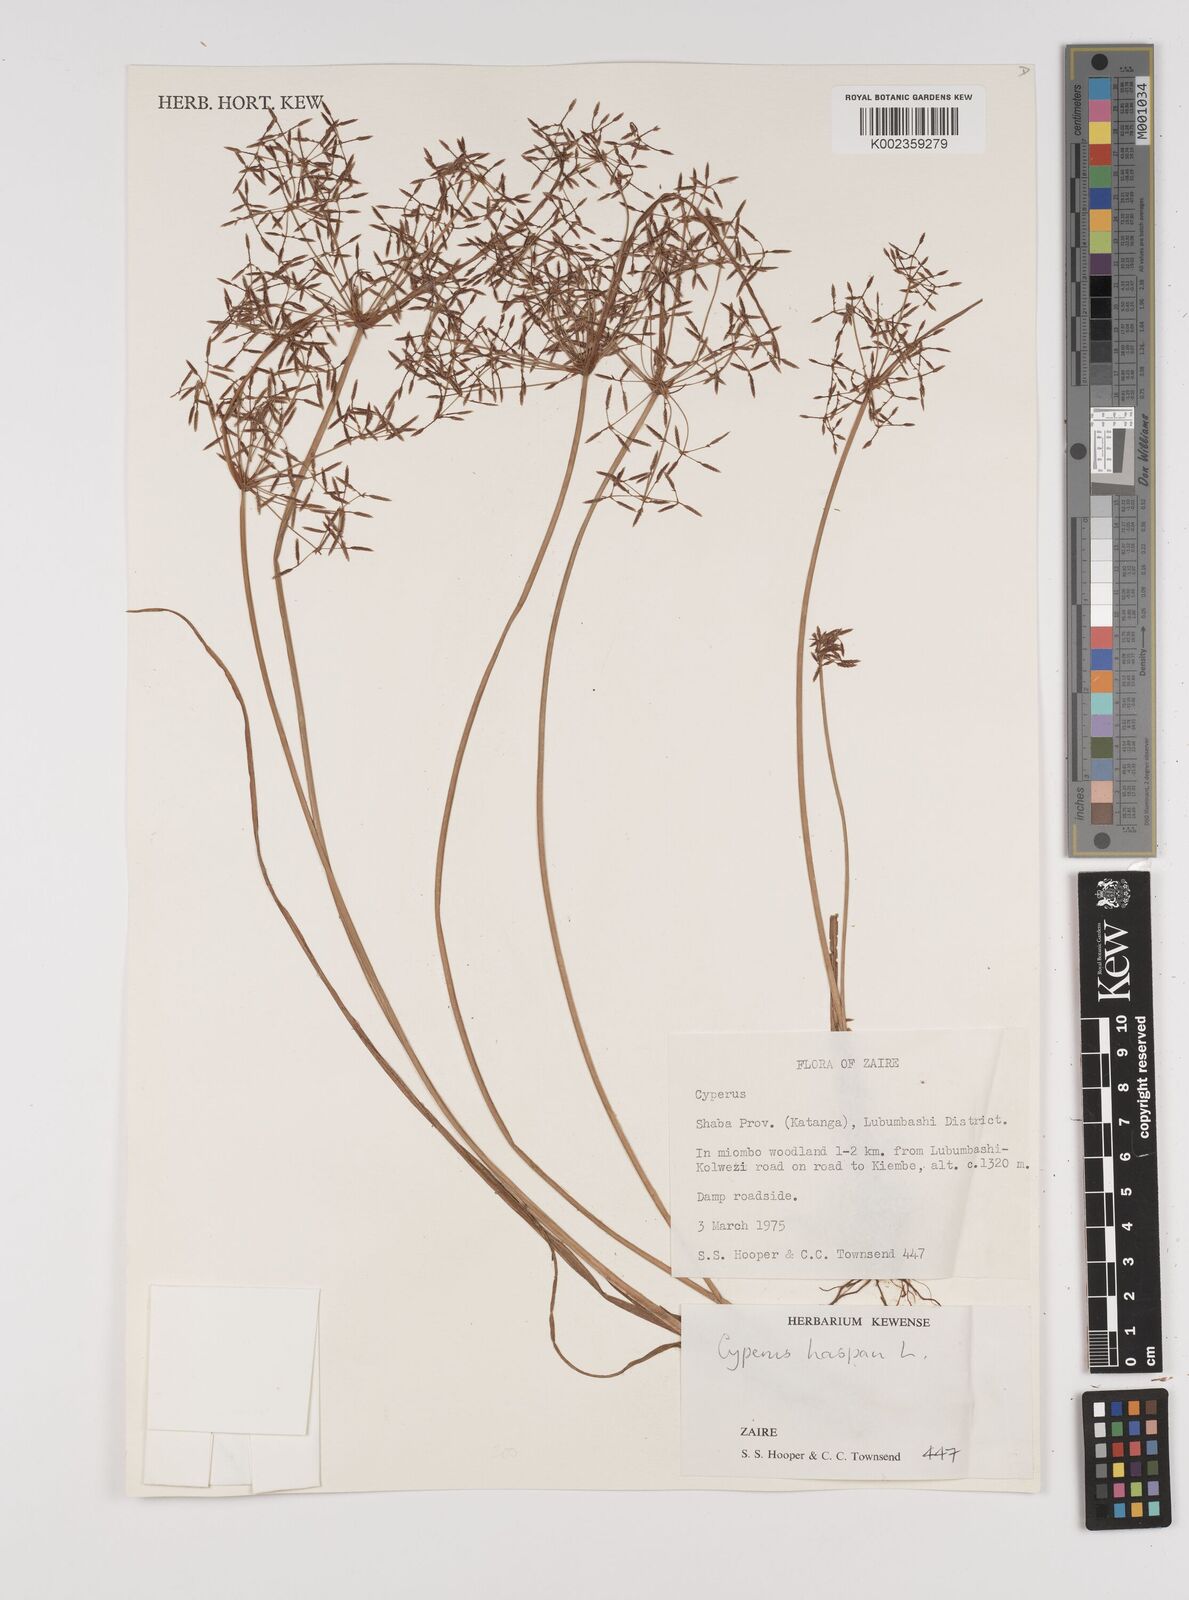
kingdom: Plantae
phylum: Tracheophyta
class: Liliopsida
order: Poales
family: Cyperaceae
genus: Cyperus
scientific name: Cyperus haspan
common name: Haspan flatsedge
